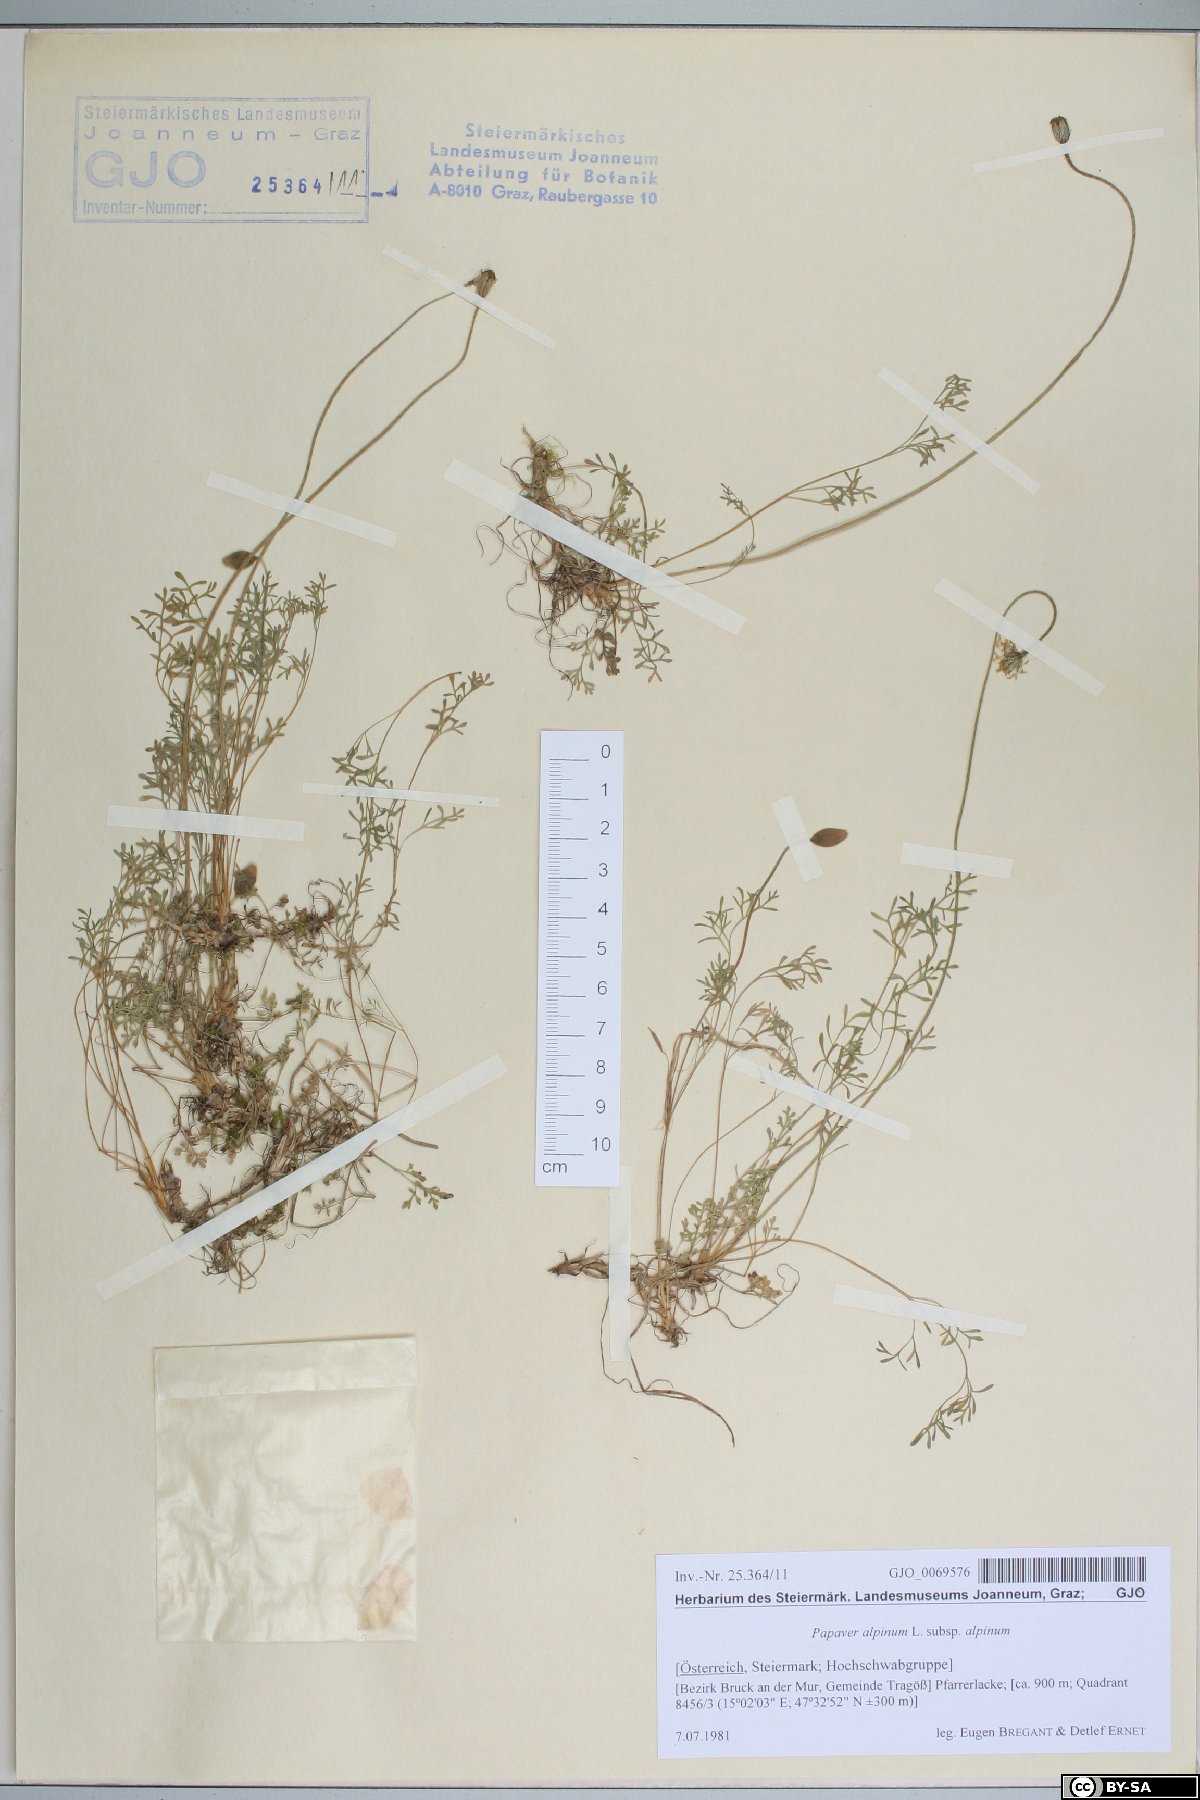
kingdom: Plantae
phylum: Tracheophyta
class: Magnoliopsida
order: Ranunculales
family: Papaveraceae
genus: Papaver
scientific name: Papaver alpinum
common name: Austrian poppy
